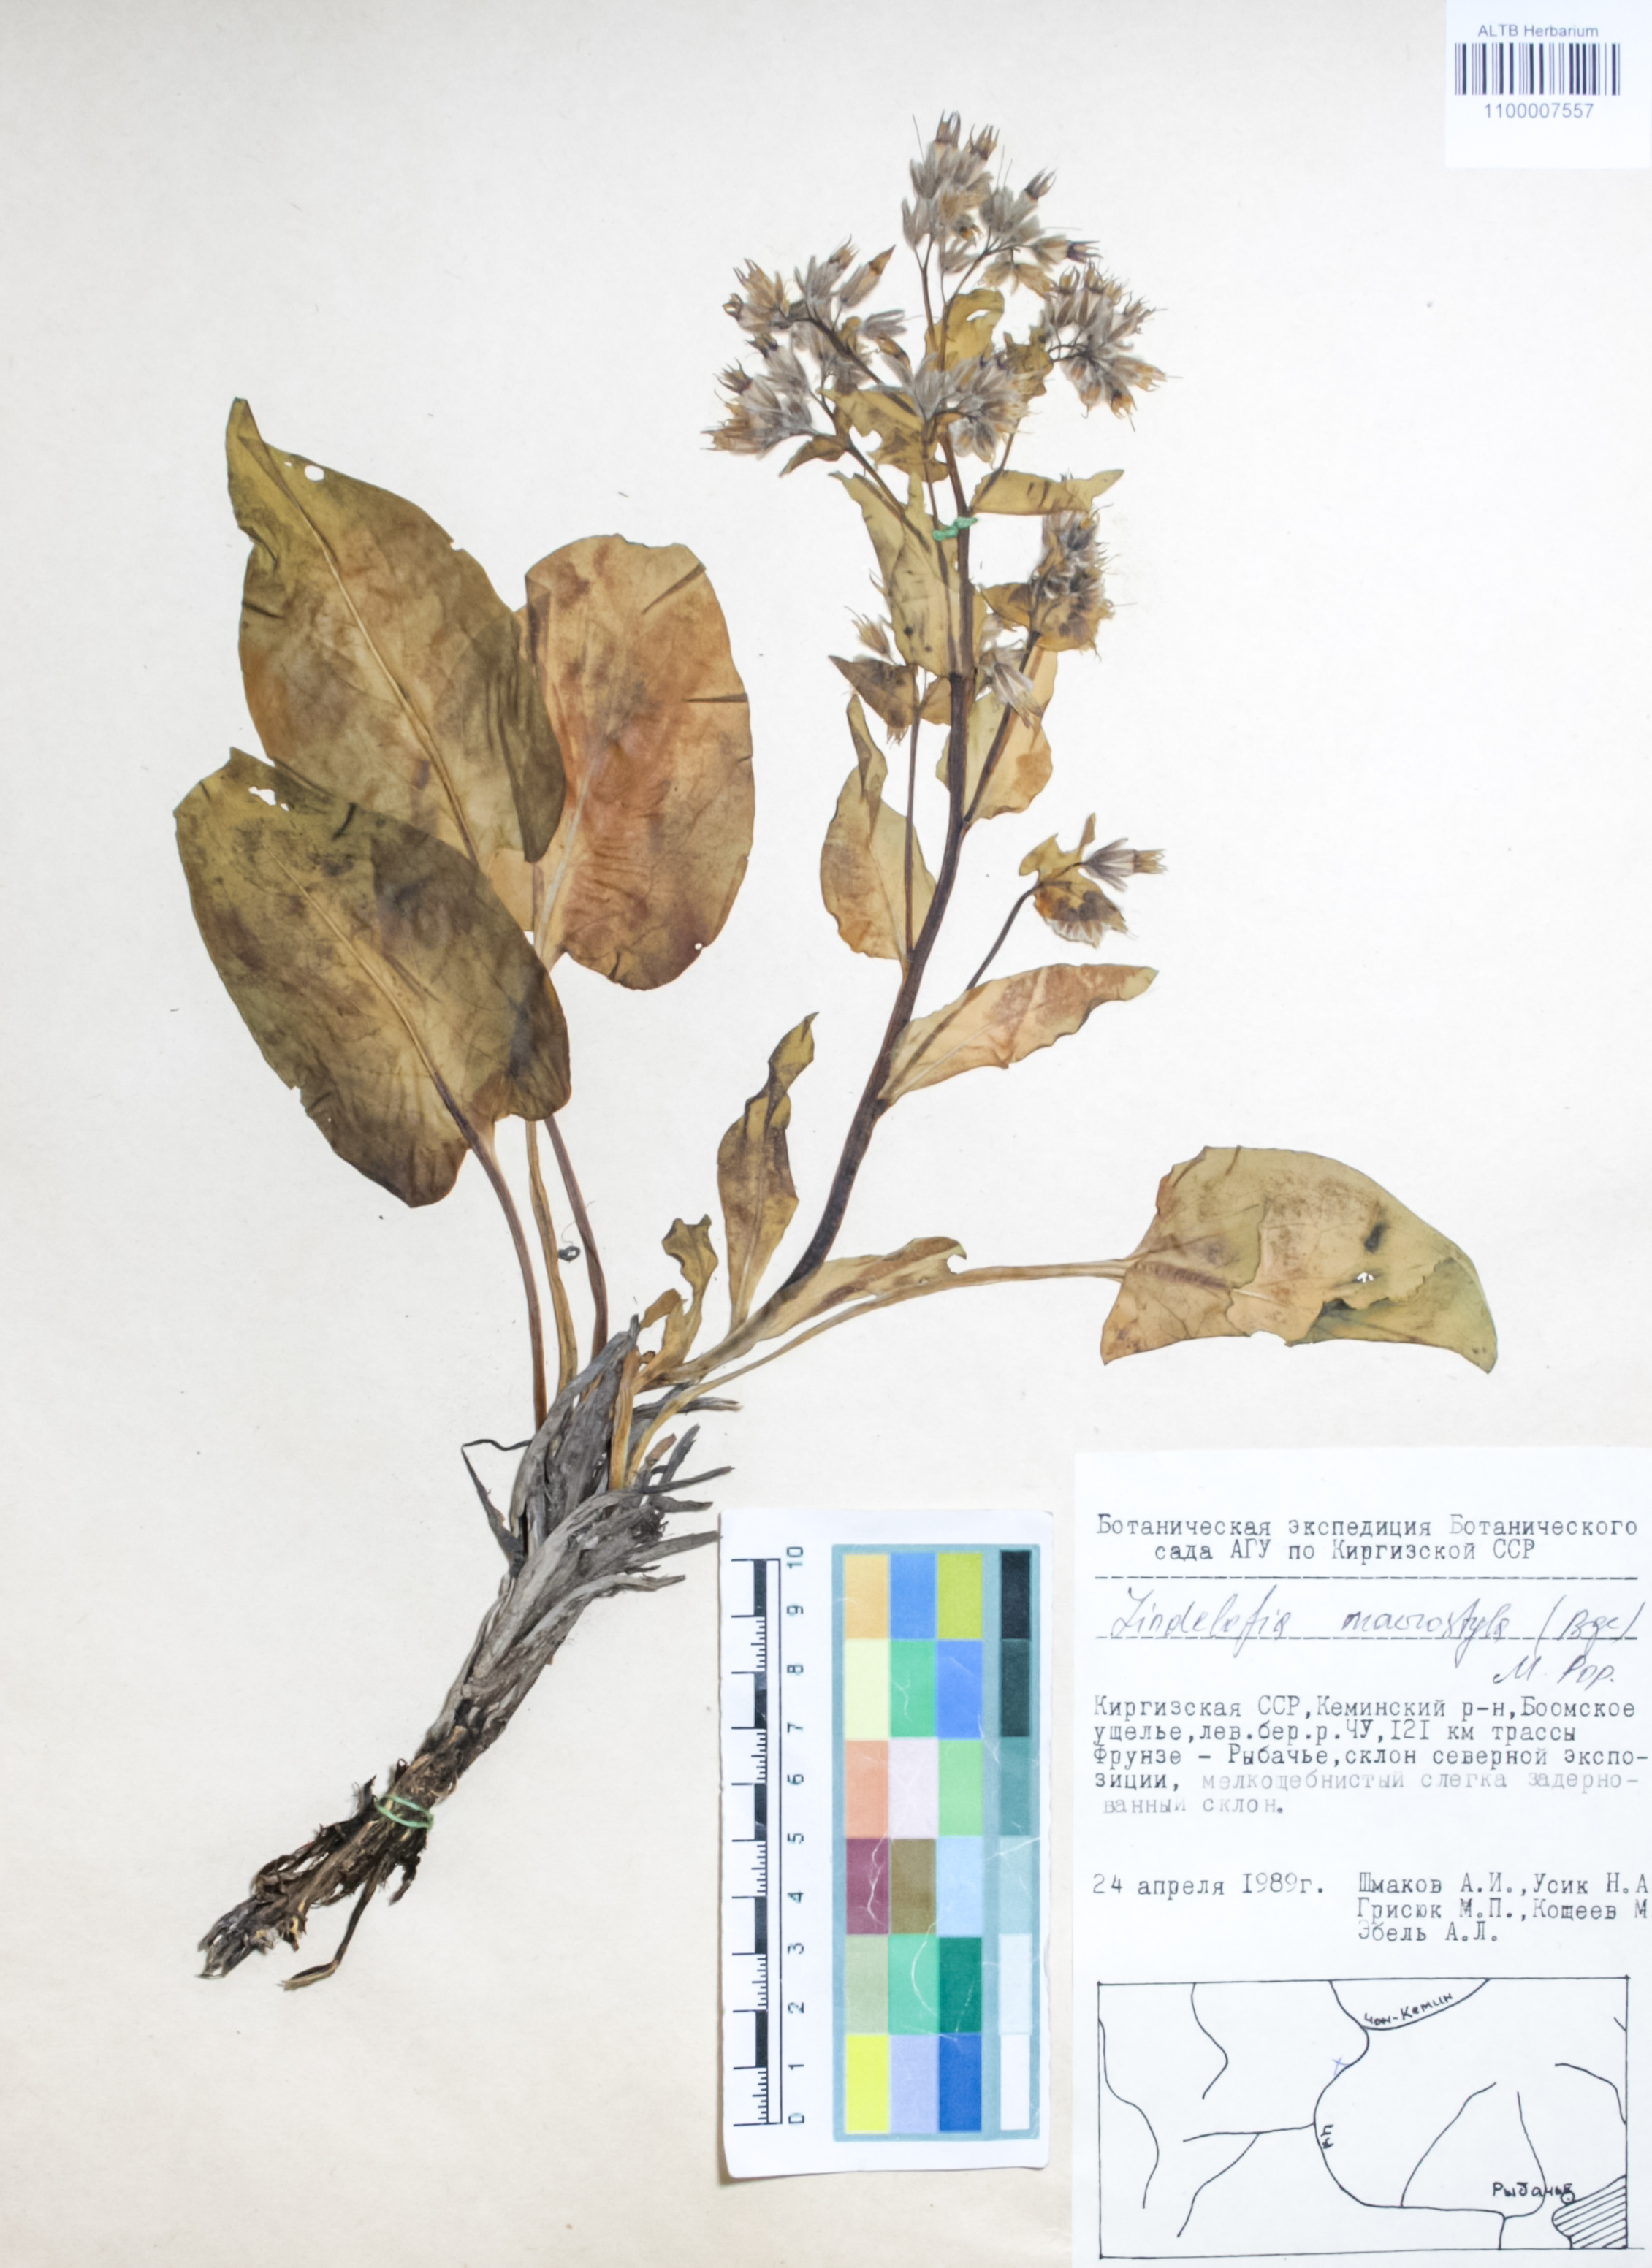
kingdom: Plantae
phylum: Tracheophyta
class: Magnoliopsida
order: Boraginales
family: Boraginaceae
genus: Lindelofia
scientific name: Lindelofia anchusoides
